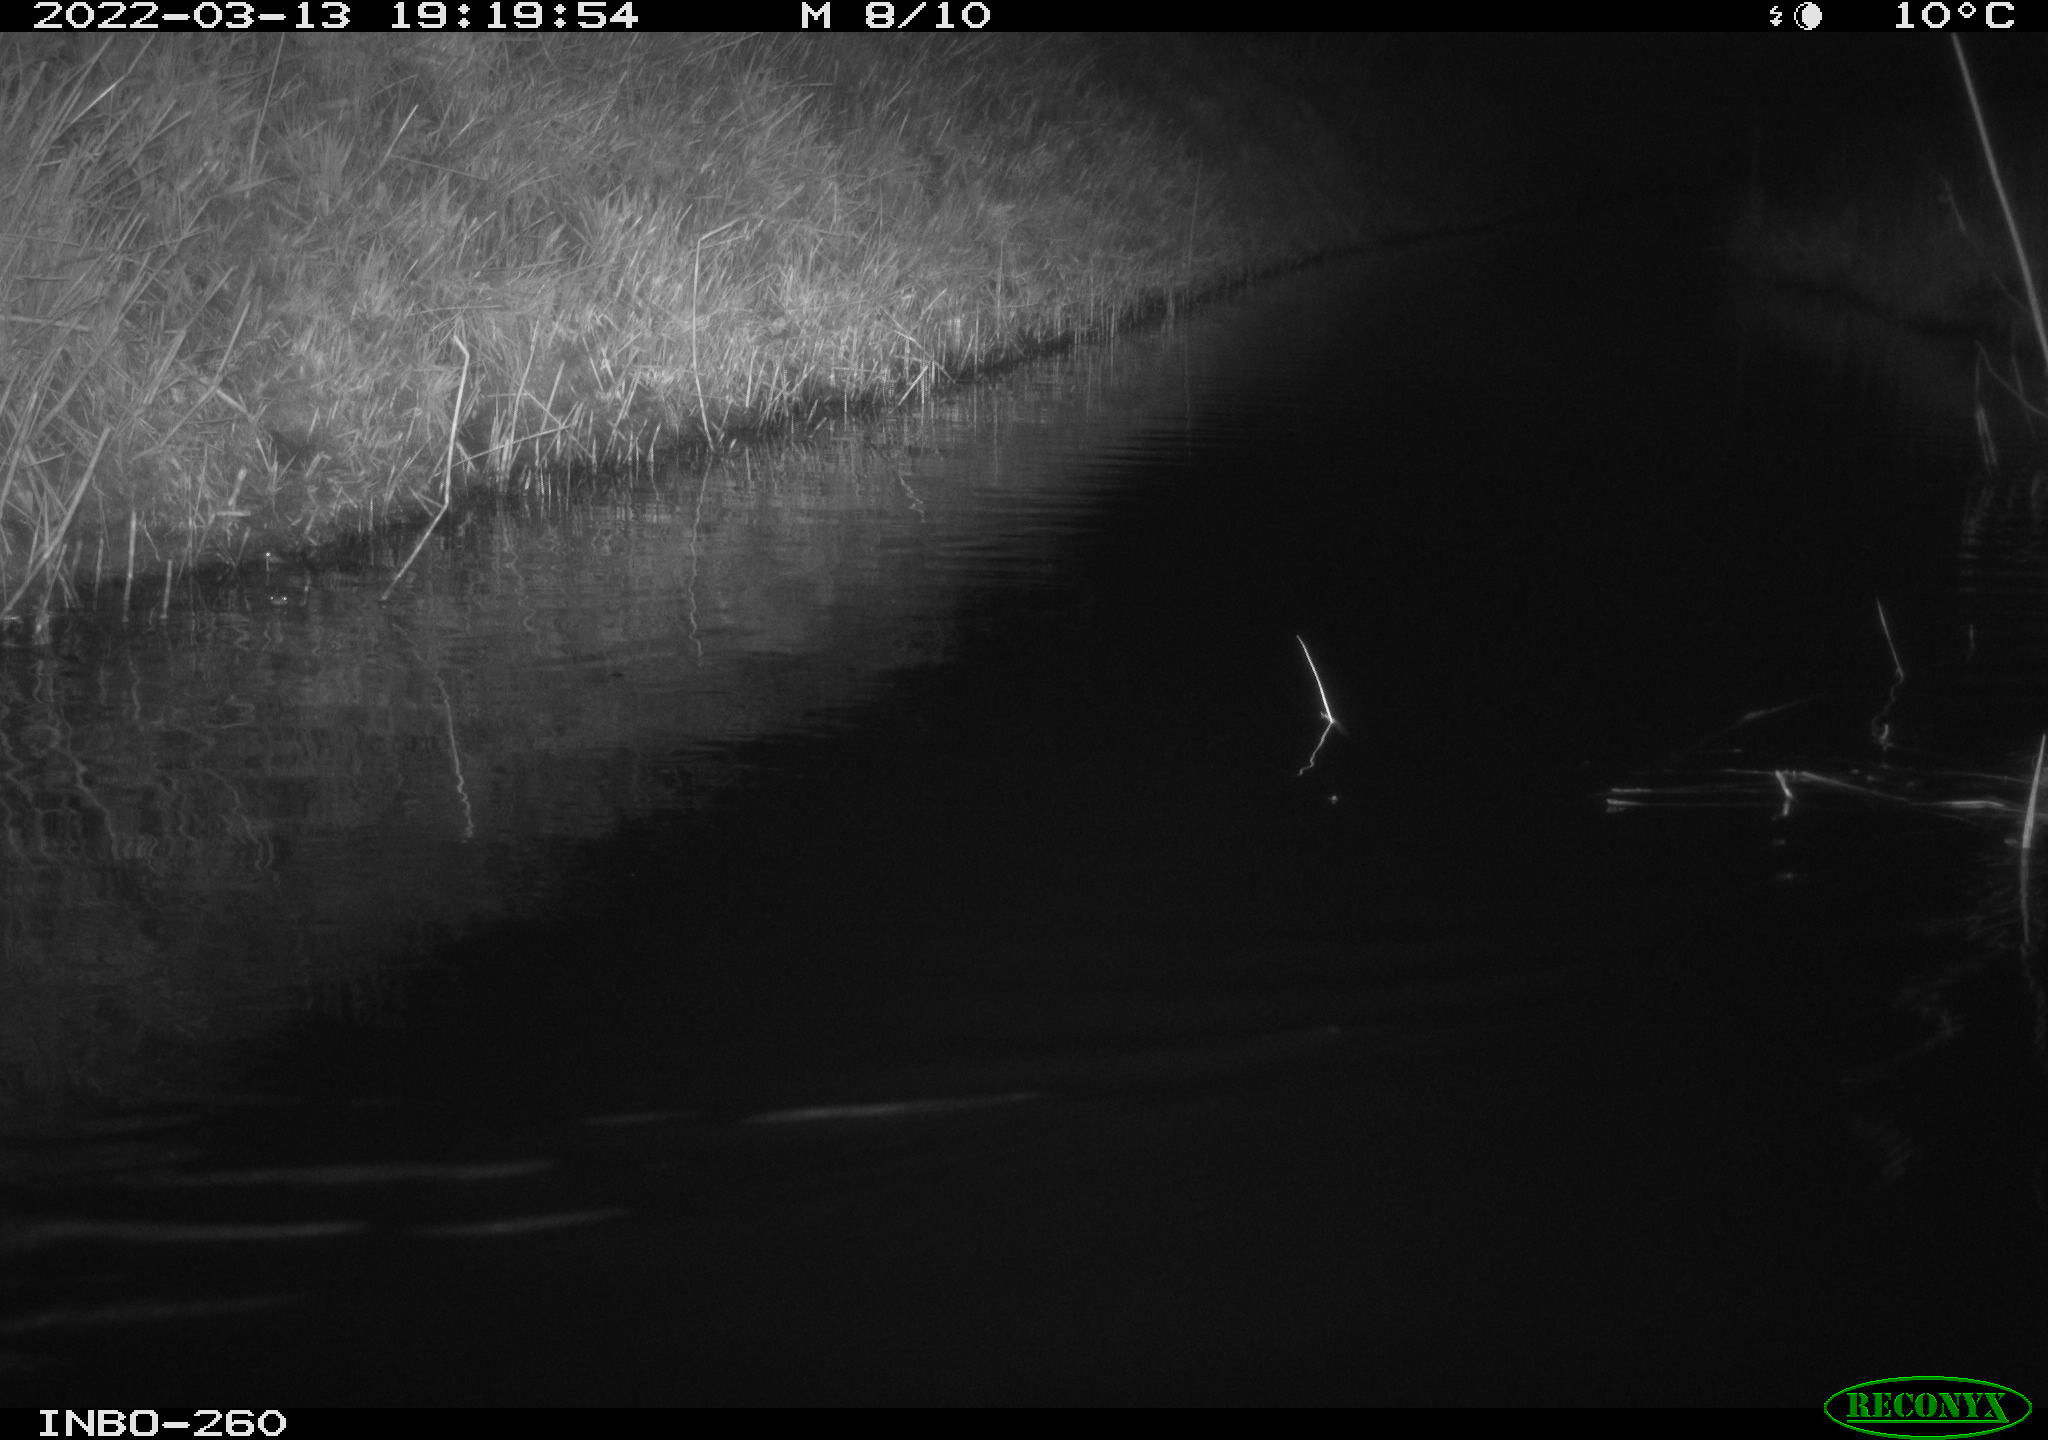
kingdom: Animalia
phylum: Chordata
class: Aves
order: Gruiformes
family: Rallidae
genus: Fulica
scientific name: Fulica atra
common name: Eurasian coot
